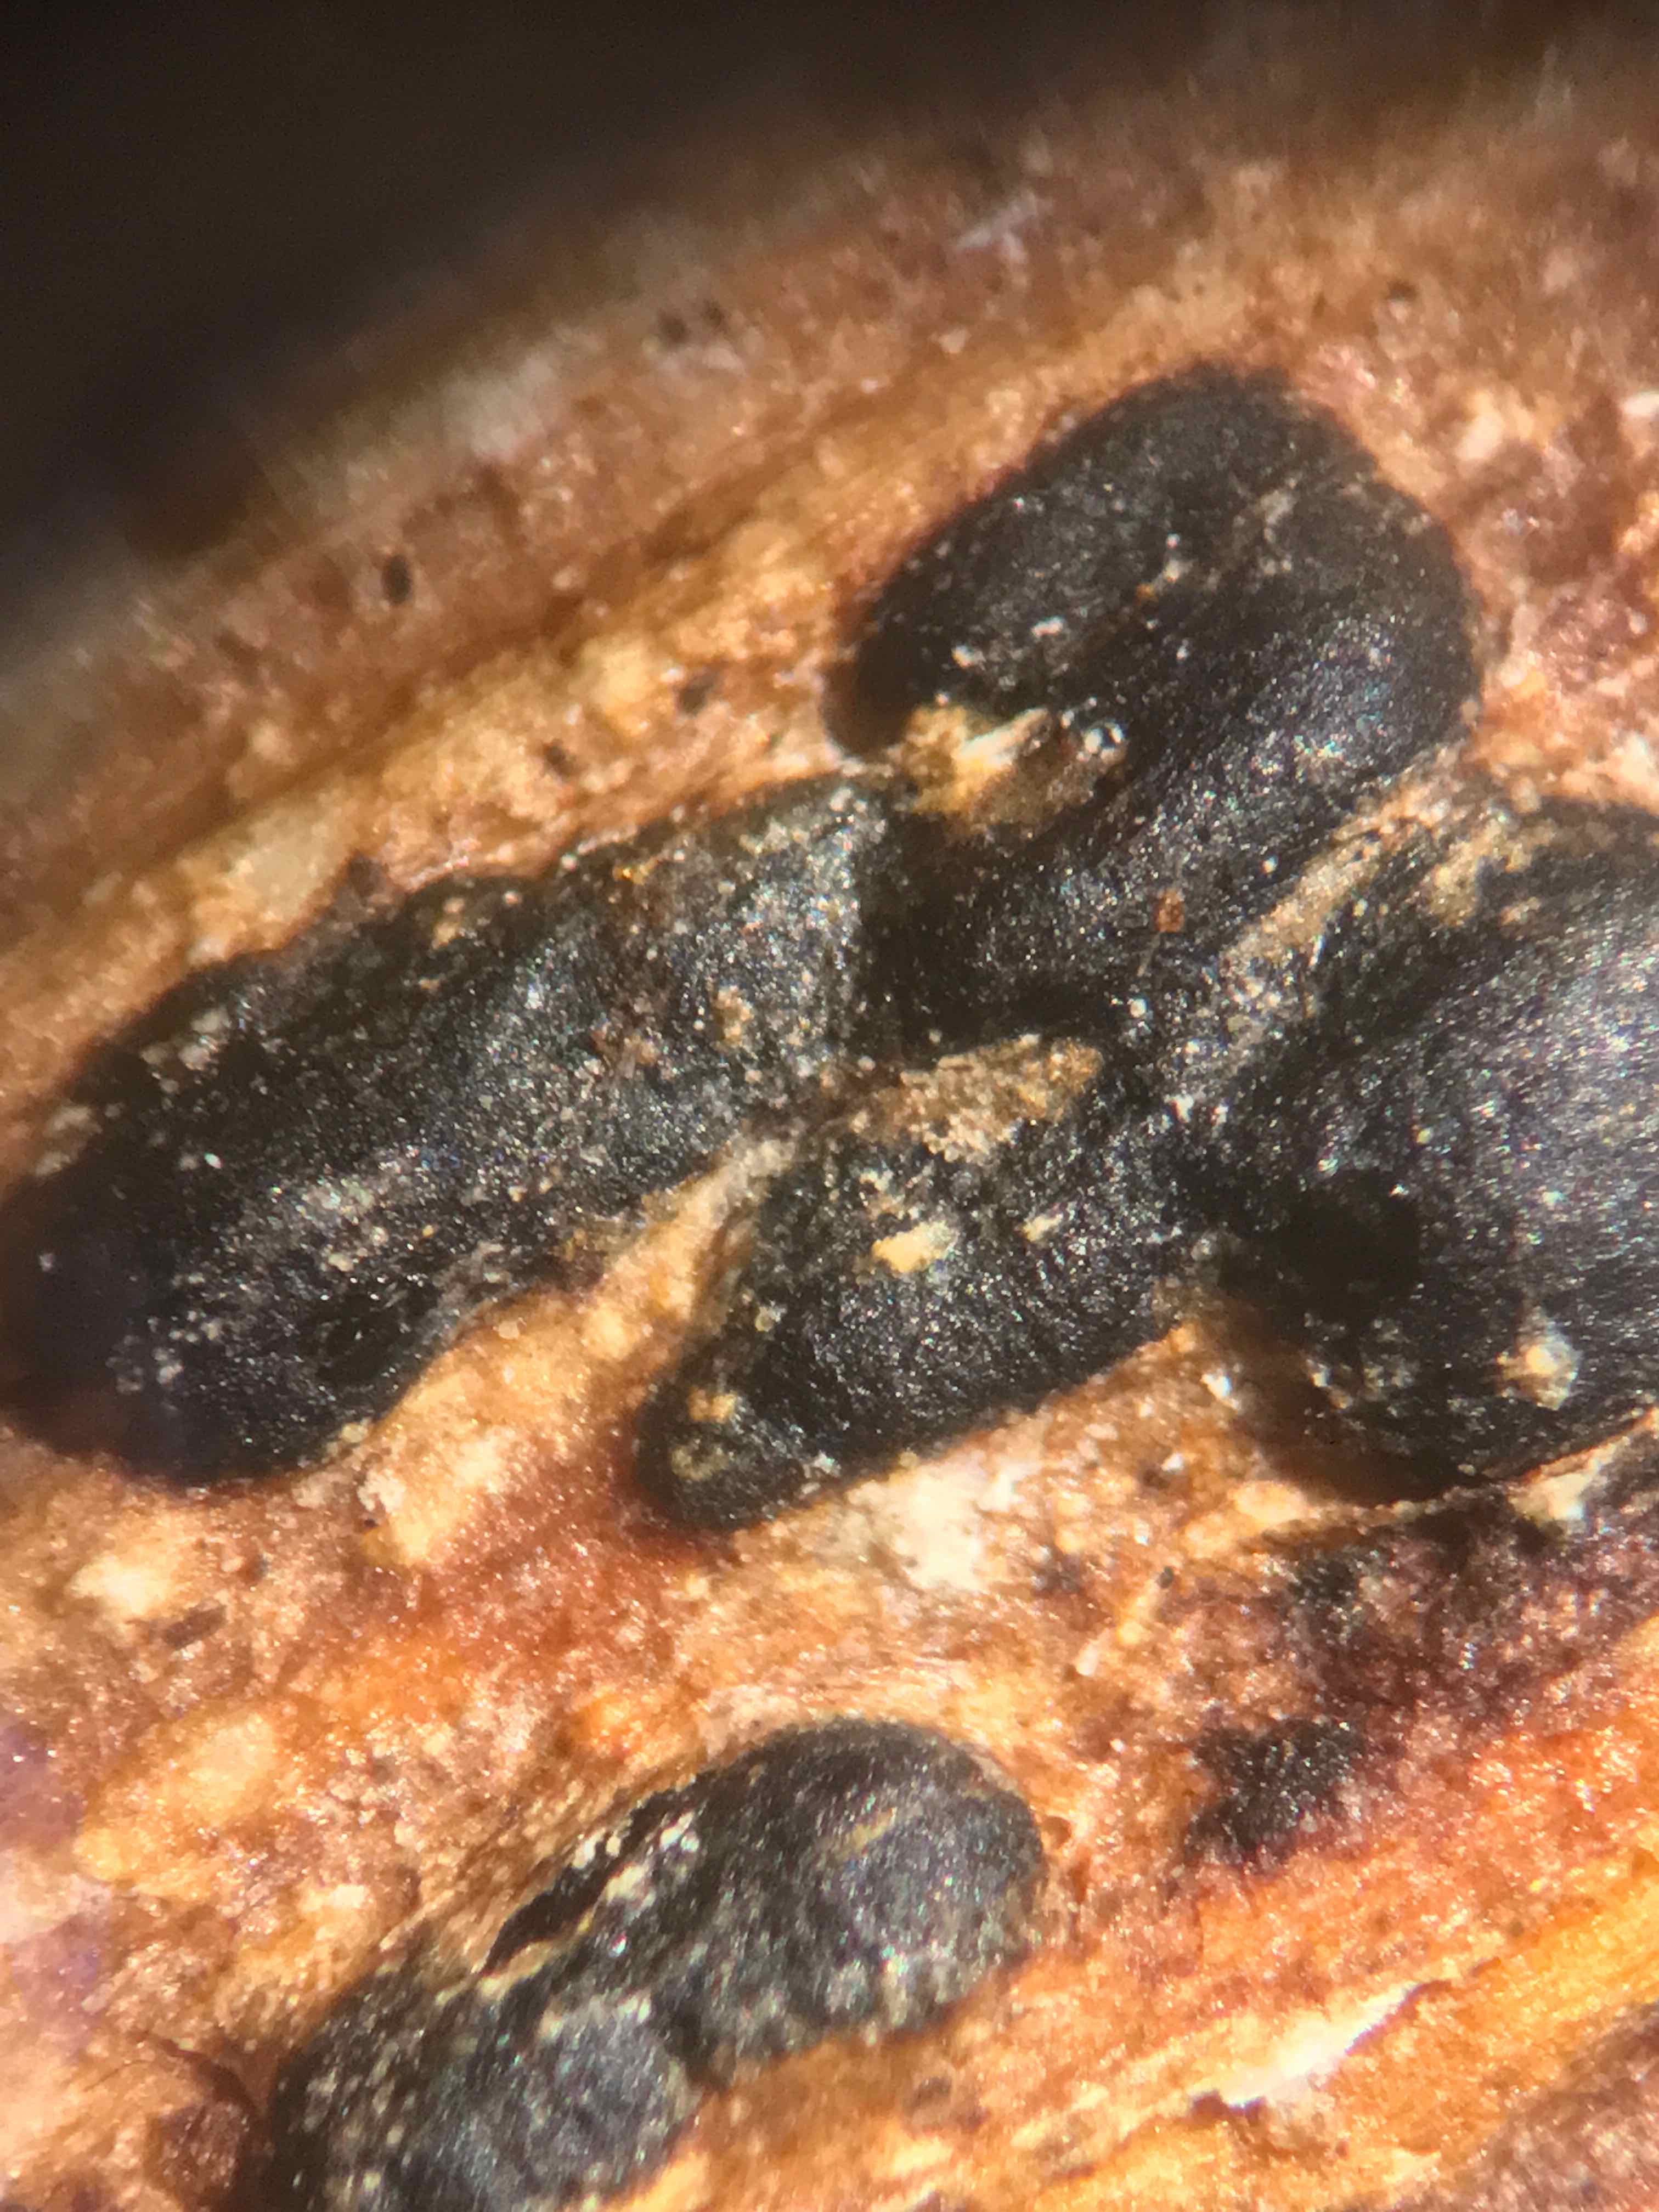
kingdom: Fungi
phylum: Basidiomycota
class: Agaricomycetes
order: Agaricales
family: Typhulaceae
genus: Sclerotium
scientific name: Sclerotium
